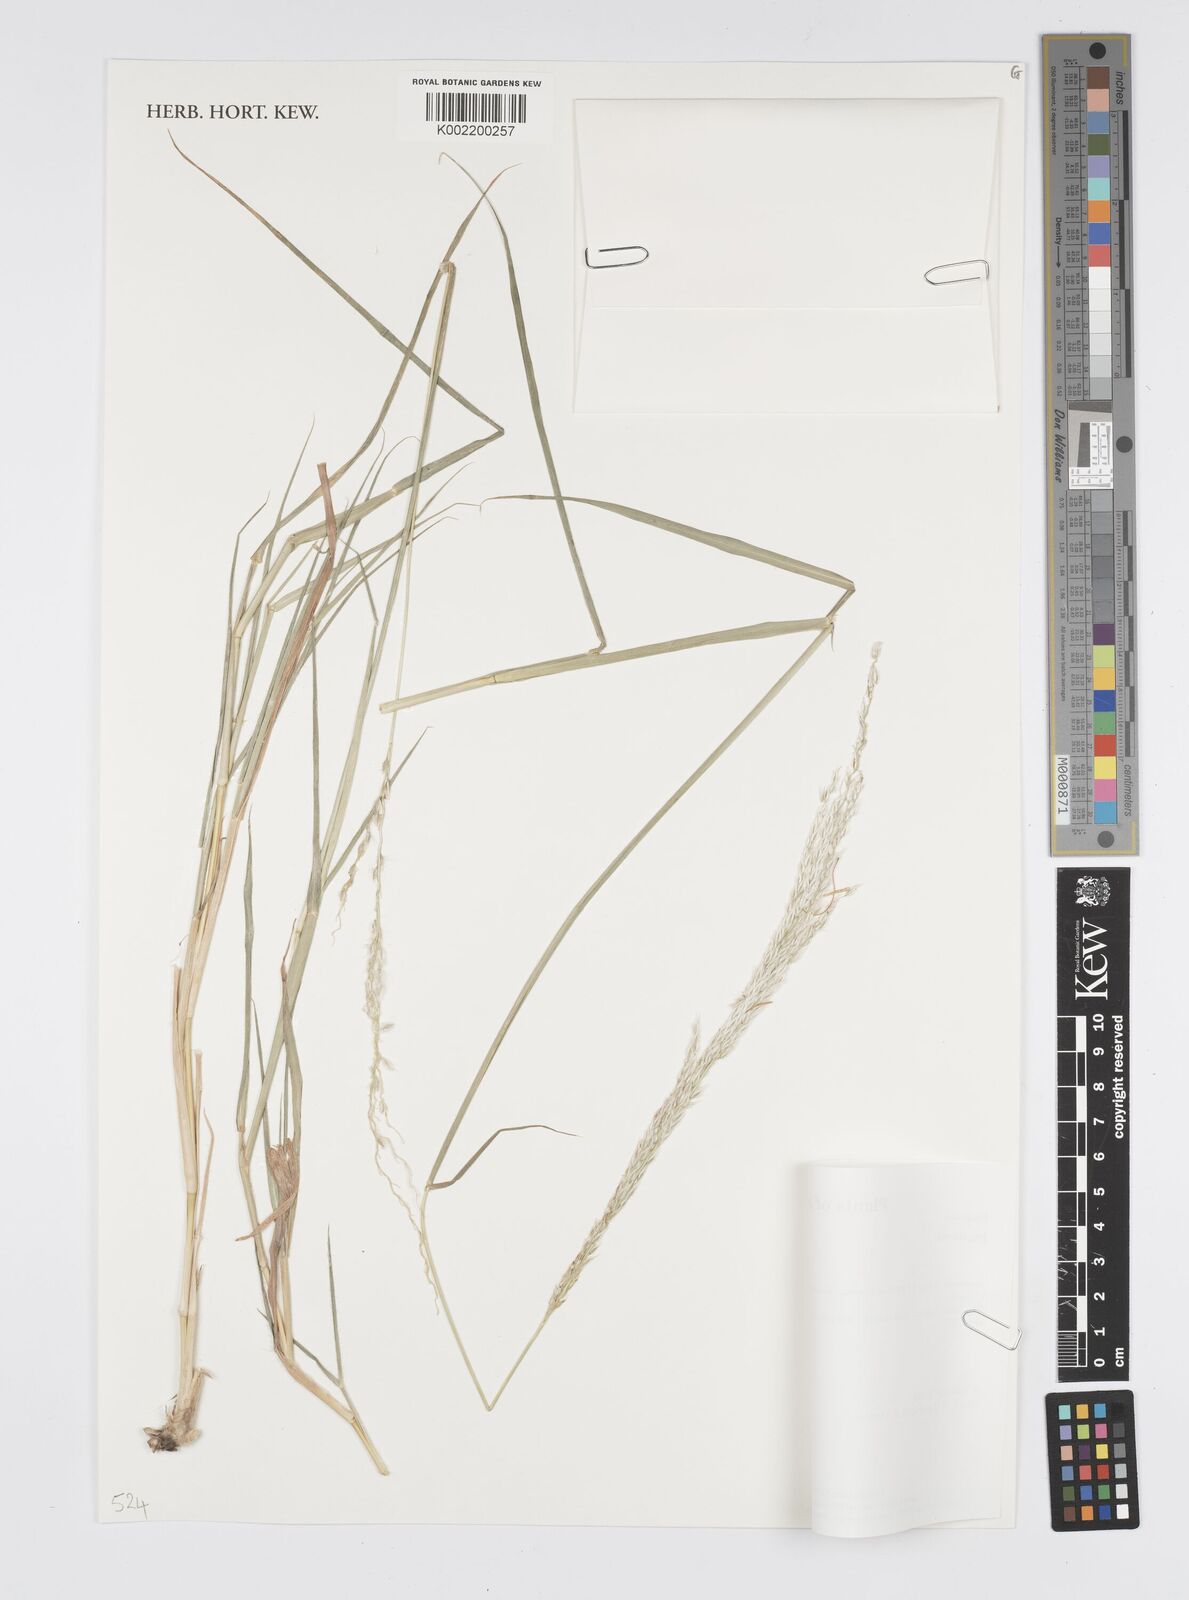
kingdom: Plantae
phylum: Tracheophyta
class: Liliopsida
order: Poales
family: Poaceae
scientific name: Poaceae
